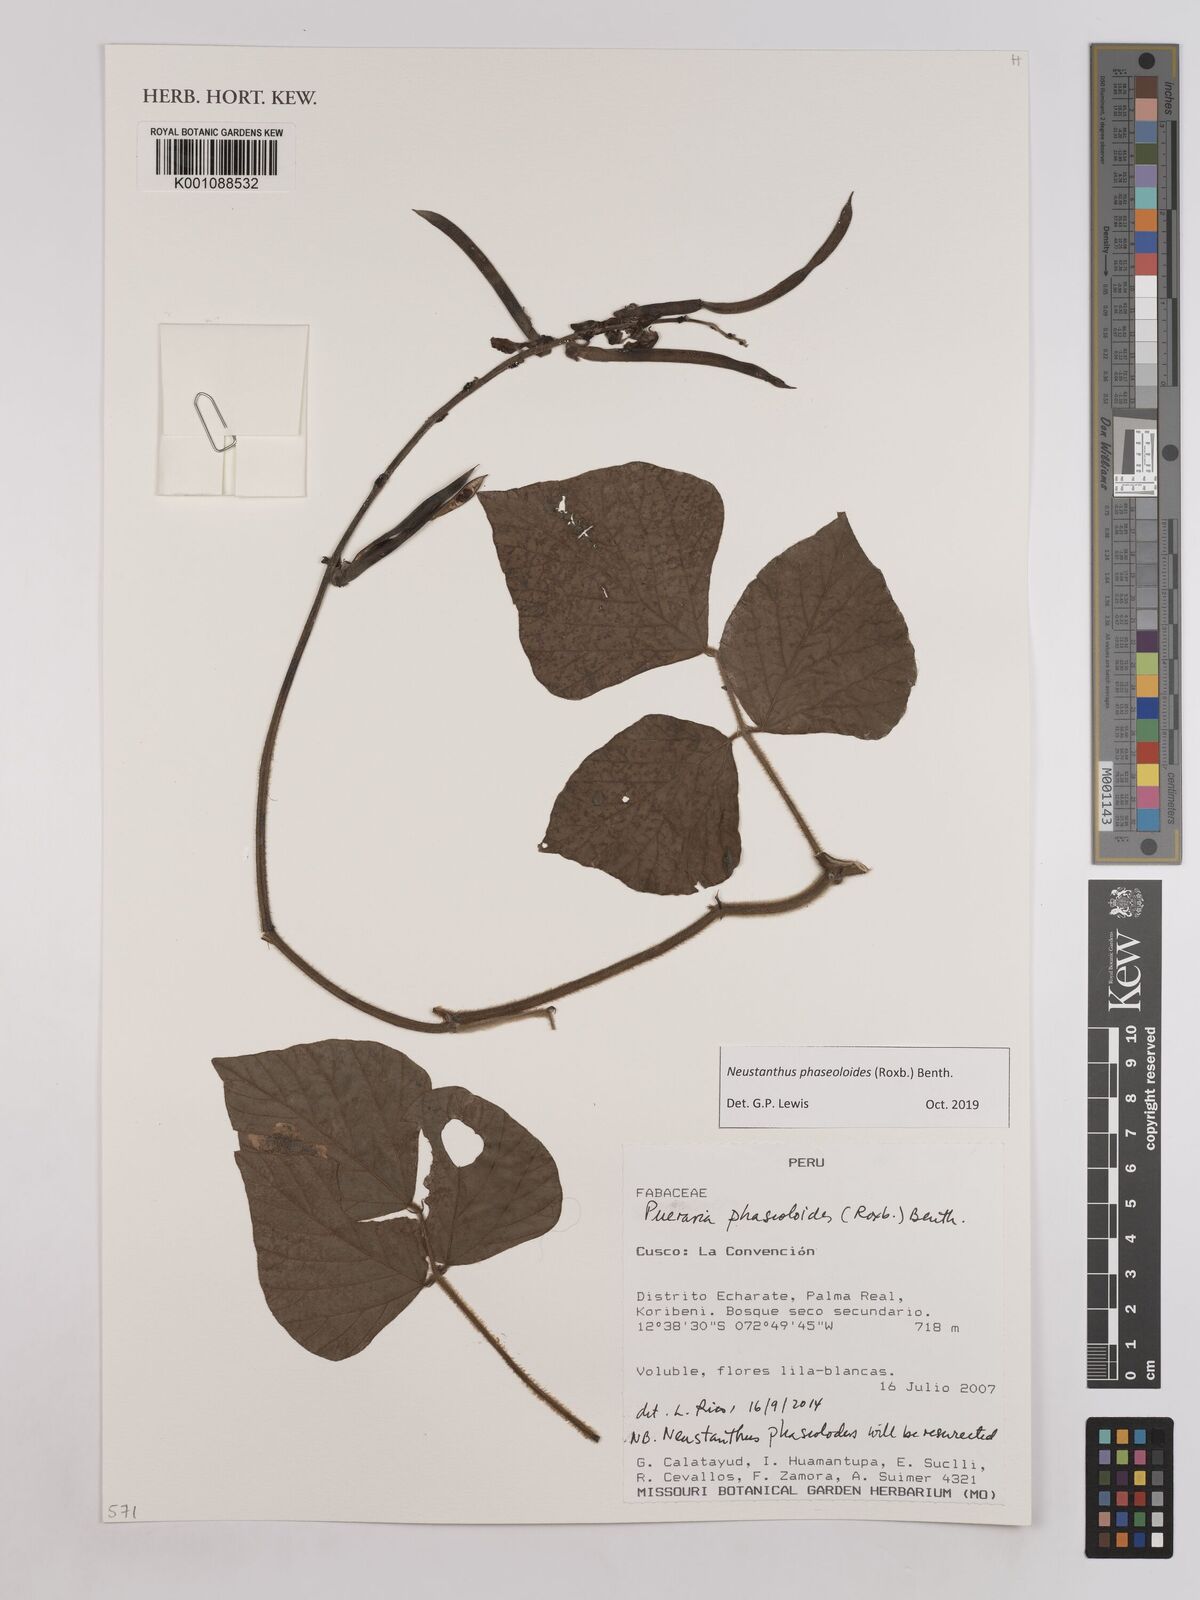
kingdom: Plantae
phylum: Tracheophyta
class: Magnoliopsida
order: Fabales
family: Fabaceae
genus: Neustanthus
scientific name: Neustanthus phaseoloides
